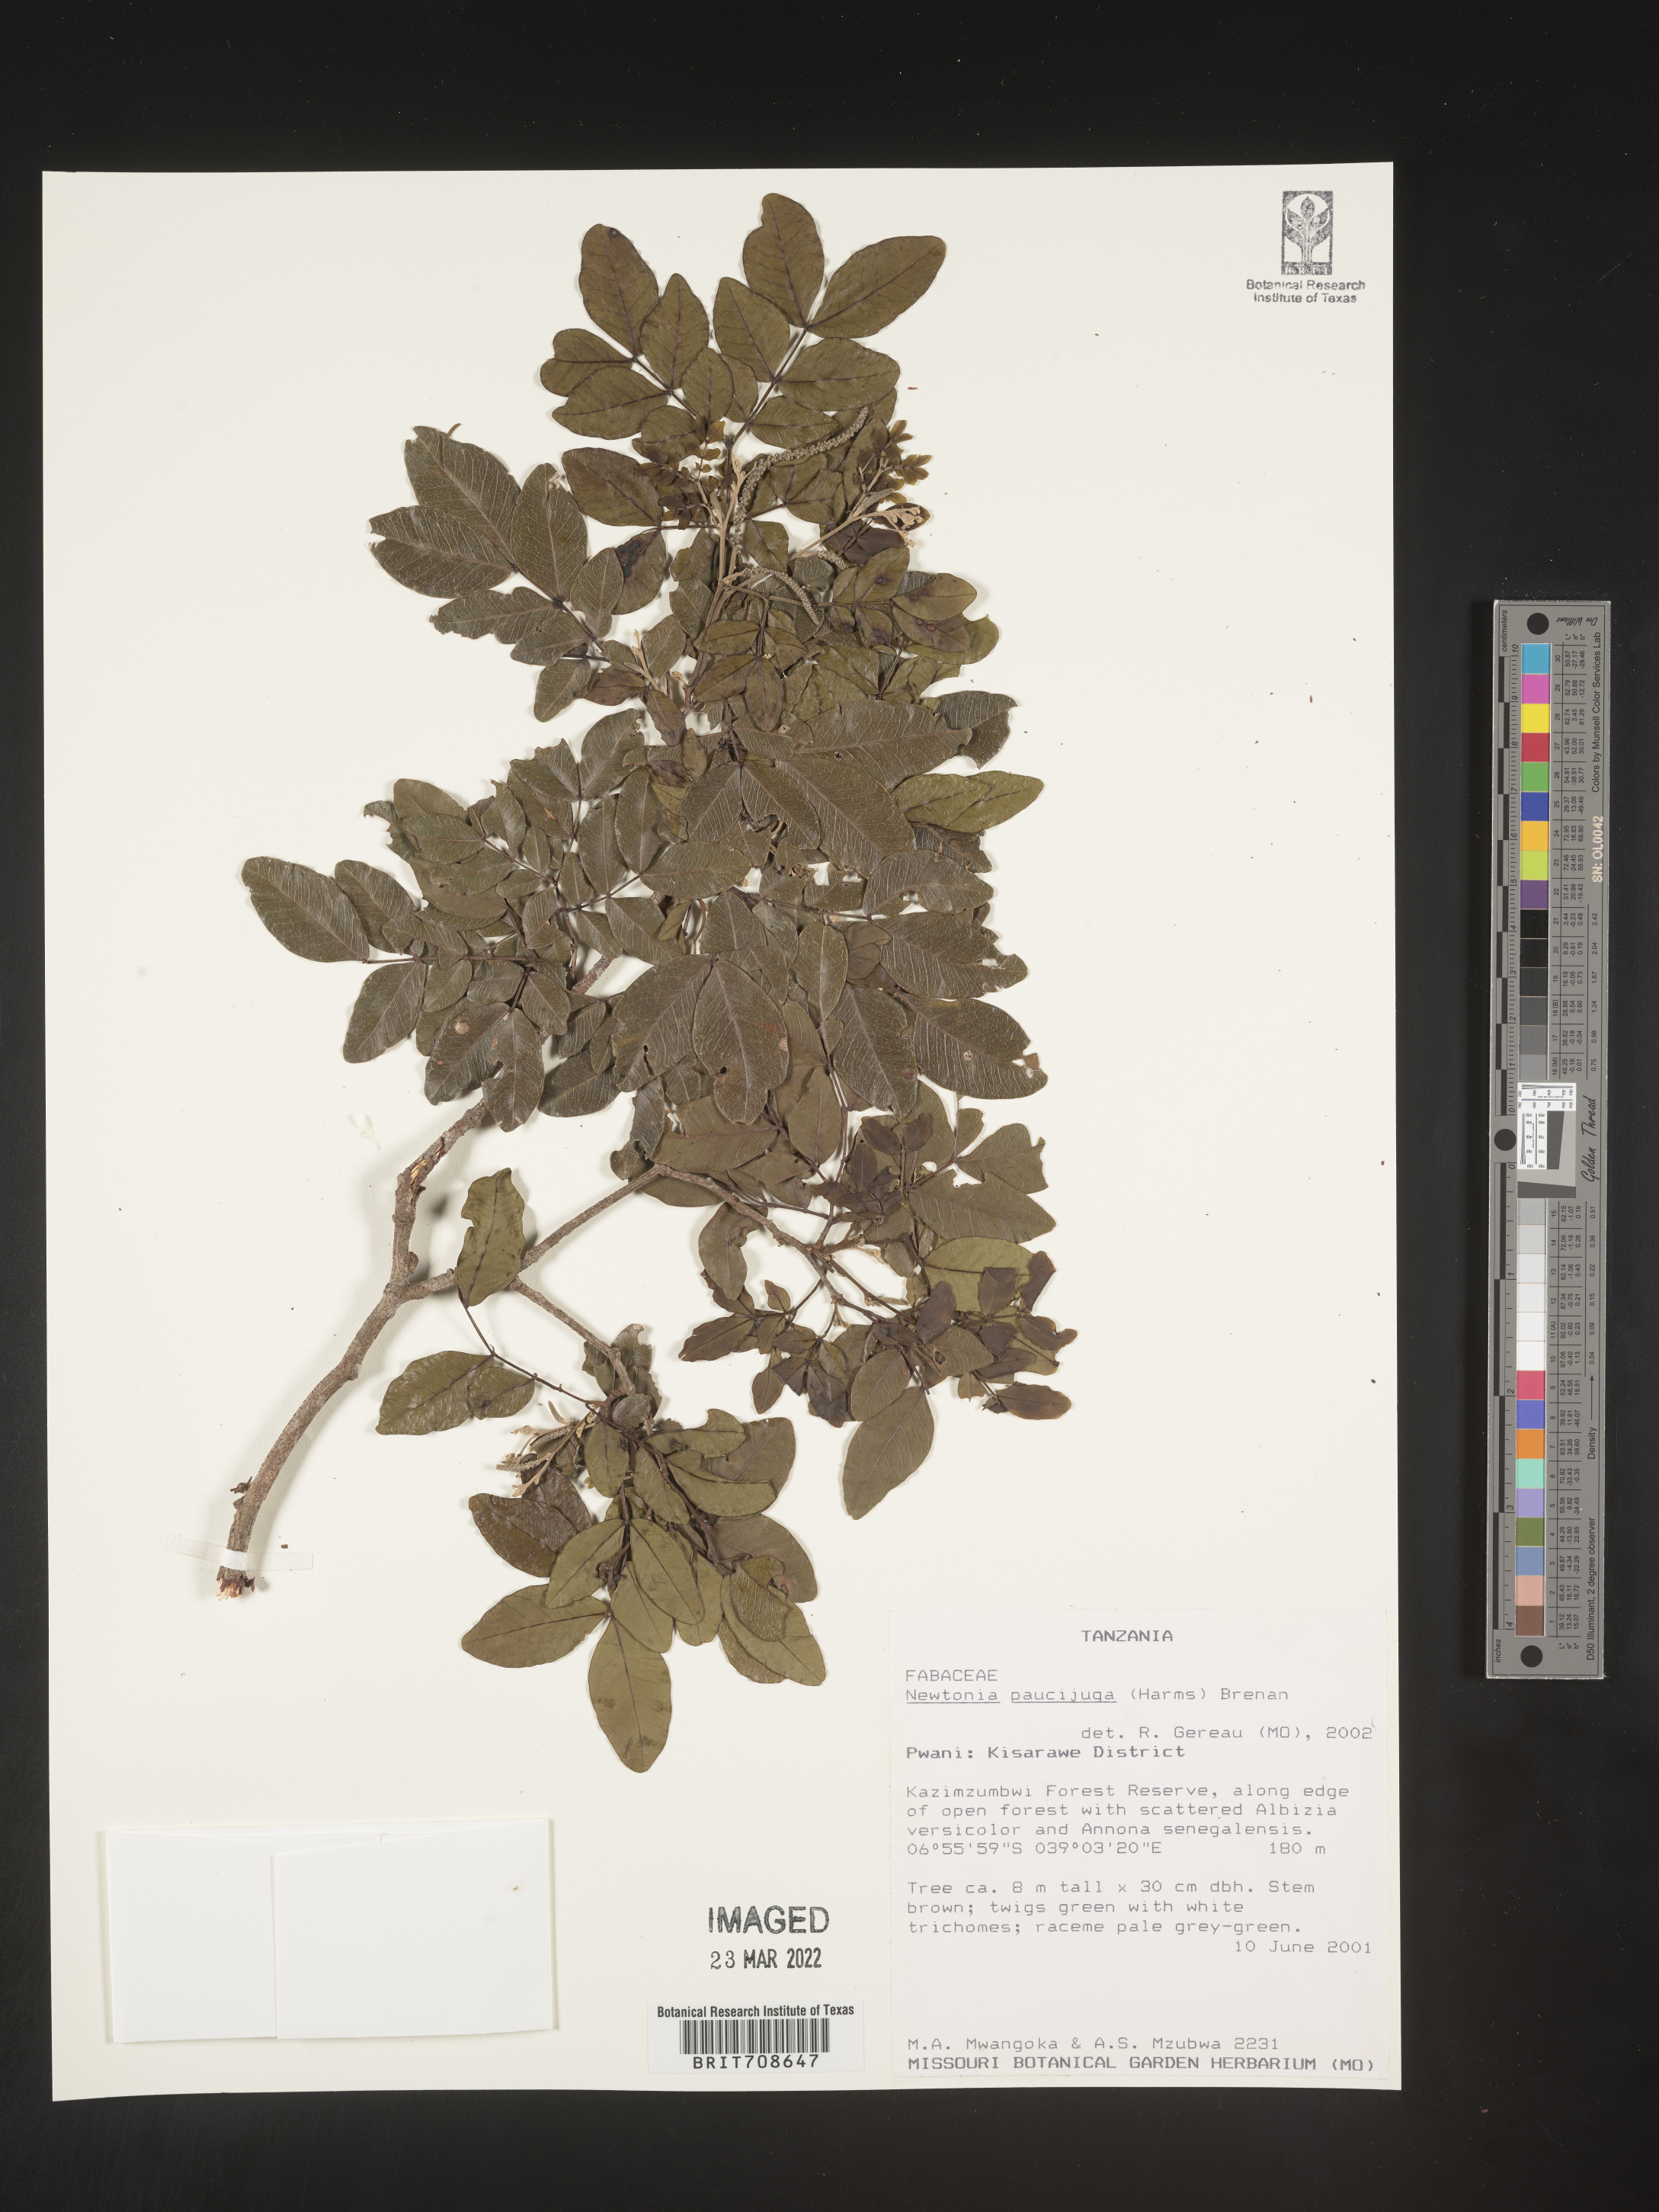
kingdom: Plantae
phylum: Tracheophyta
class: Magnoliopsida
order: Fabales
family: Fabaceae
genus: Newtonia
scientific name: Newtonia
